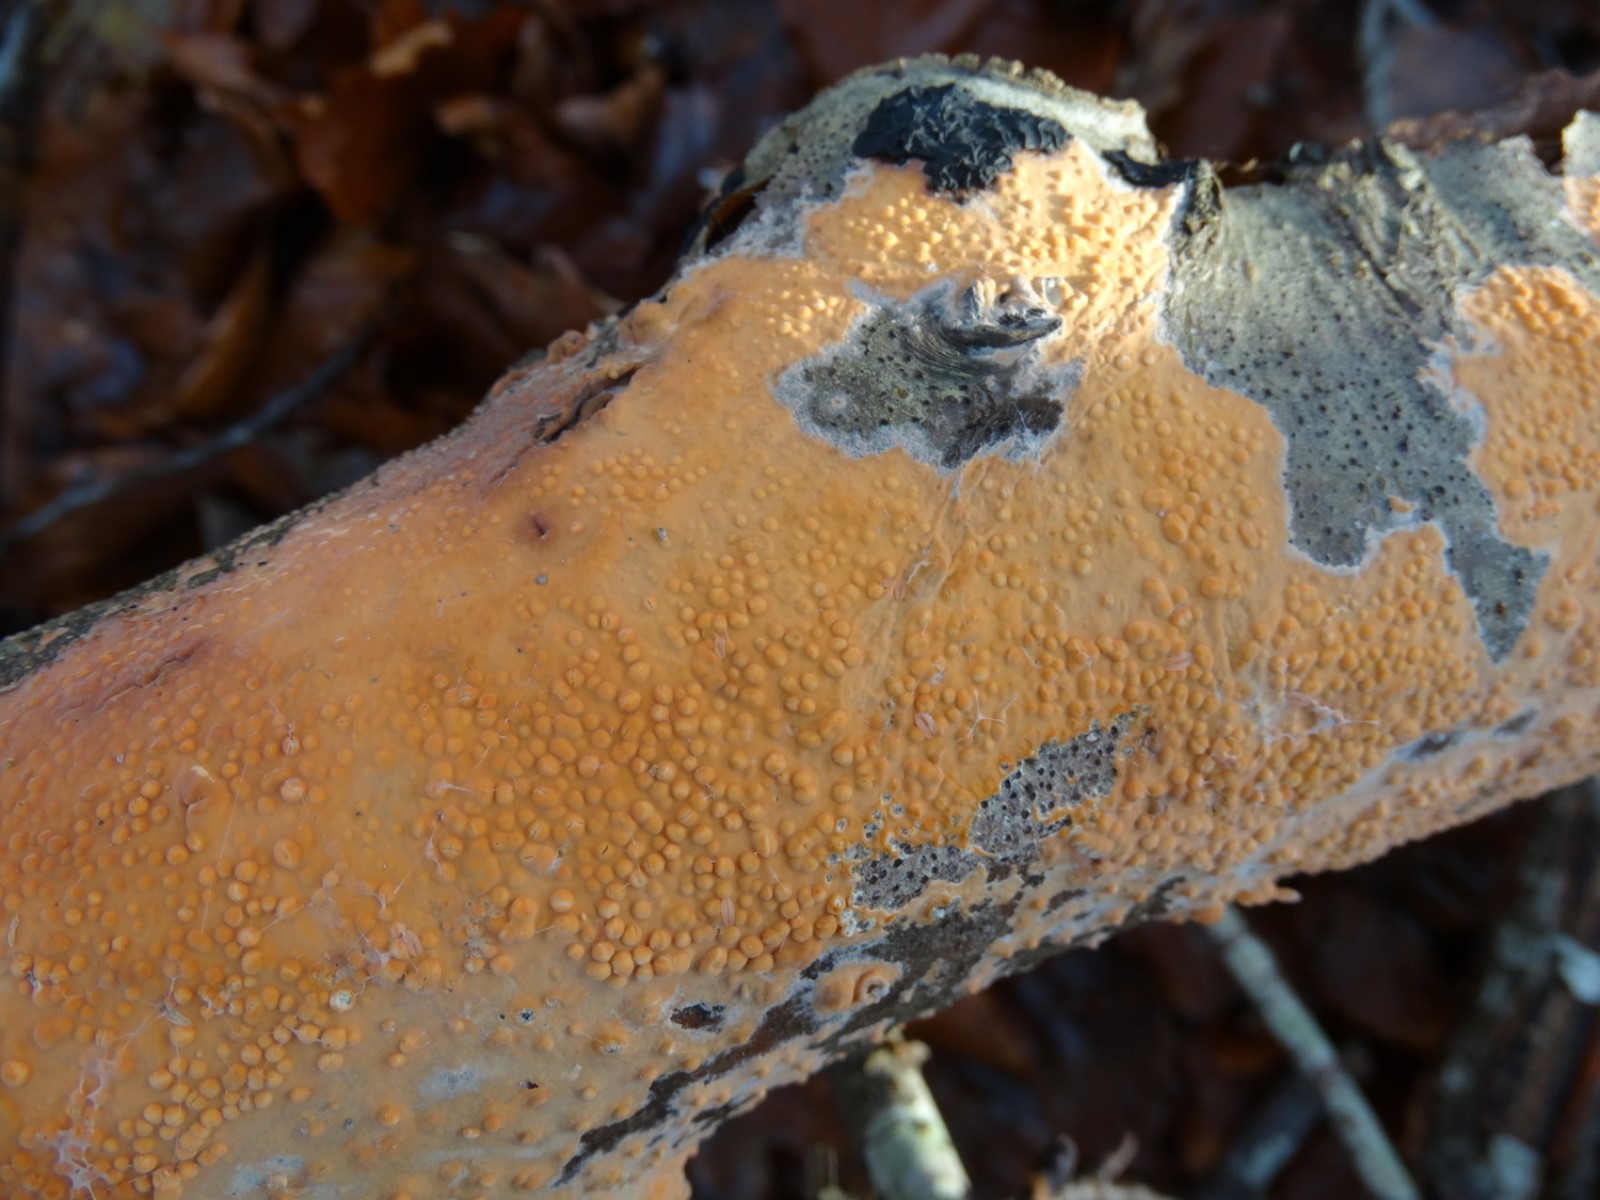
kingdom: Fungi
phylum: Basidiomycota
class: Agaricomycetes
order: Russulales
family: Peniophoraceae
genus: Peniophora
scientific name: Peniophora incarnata
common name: laksefarvet voksskind
